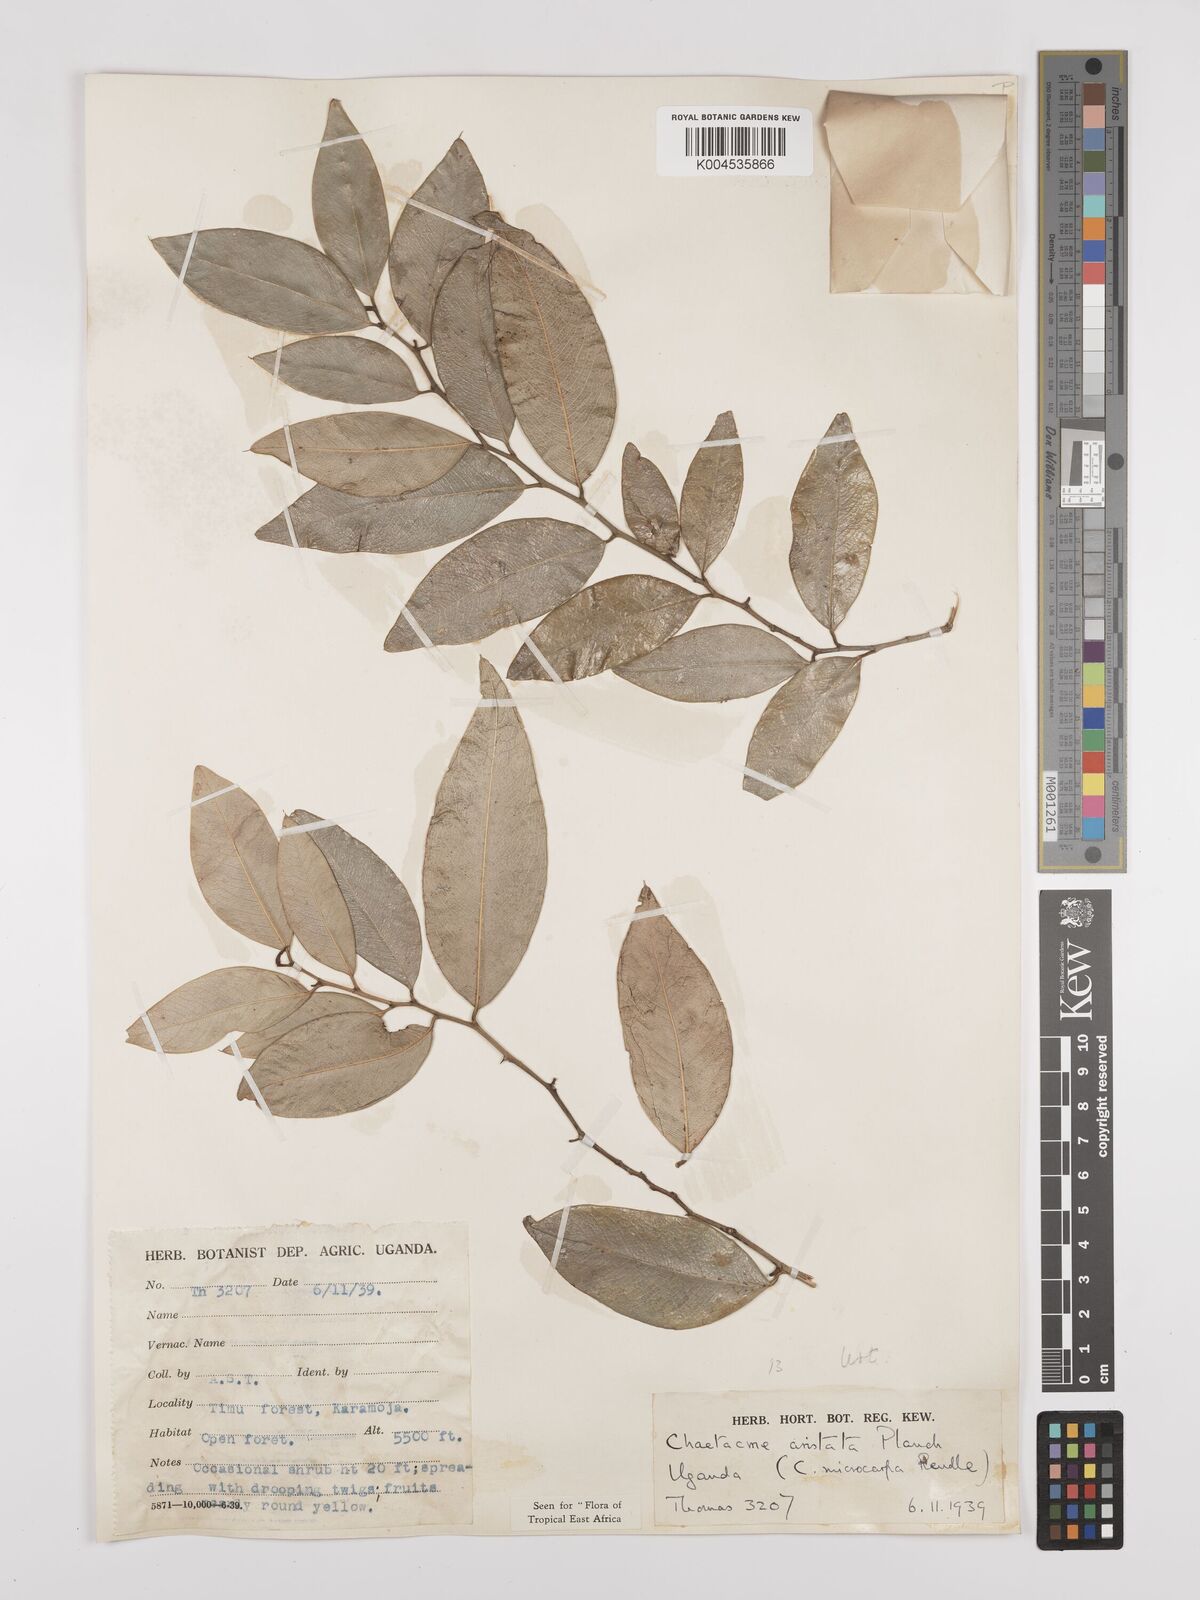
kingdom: Plantae
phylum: Tracheophyta
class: Magnoliopsida
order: Rosales
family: Cannabaceae
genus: Chaetachme
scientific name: Chaetachme aristata
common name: Thorny elm
